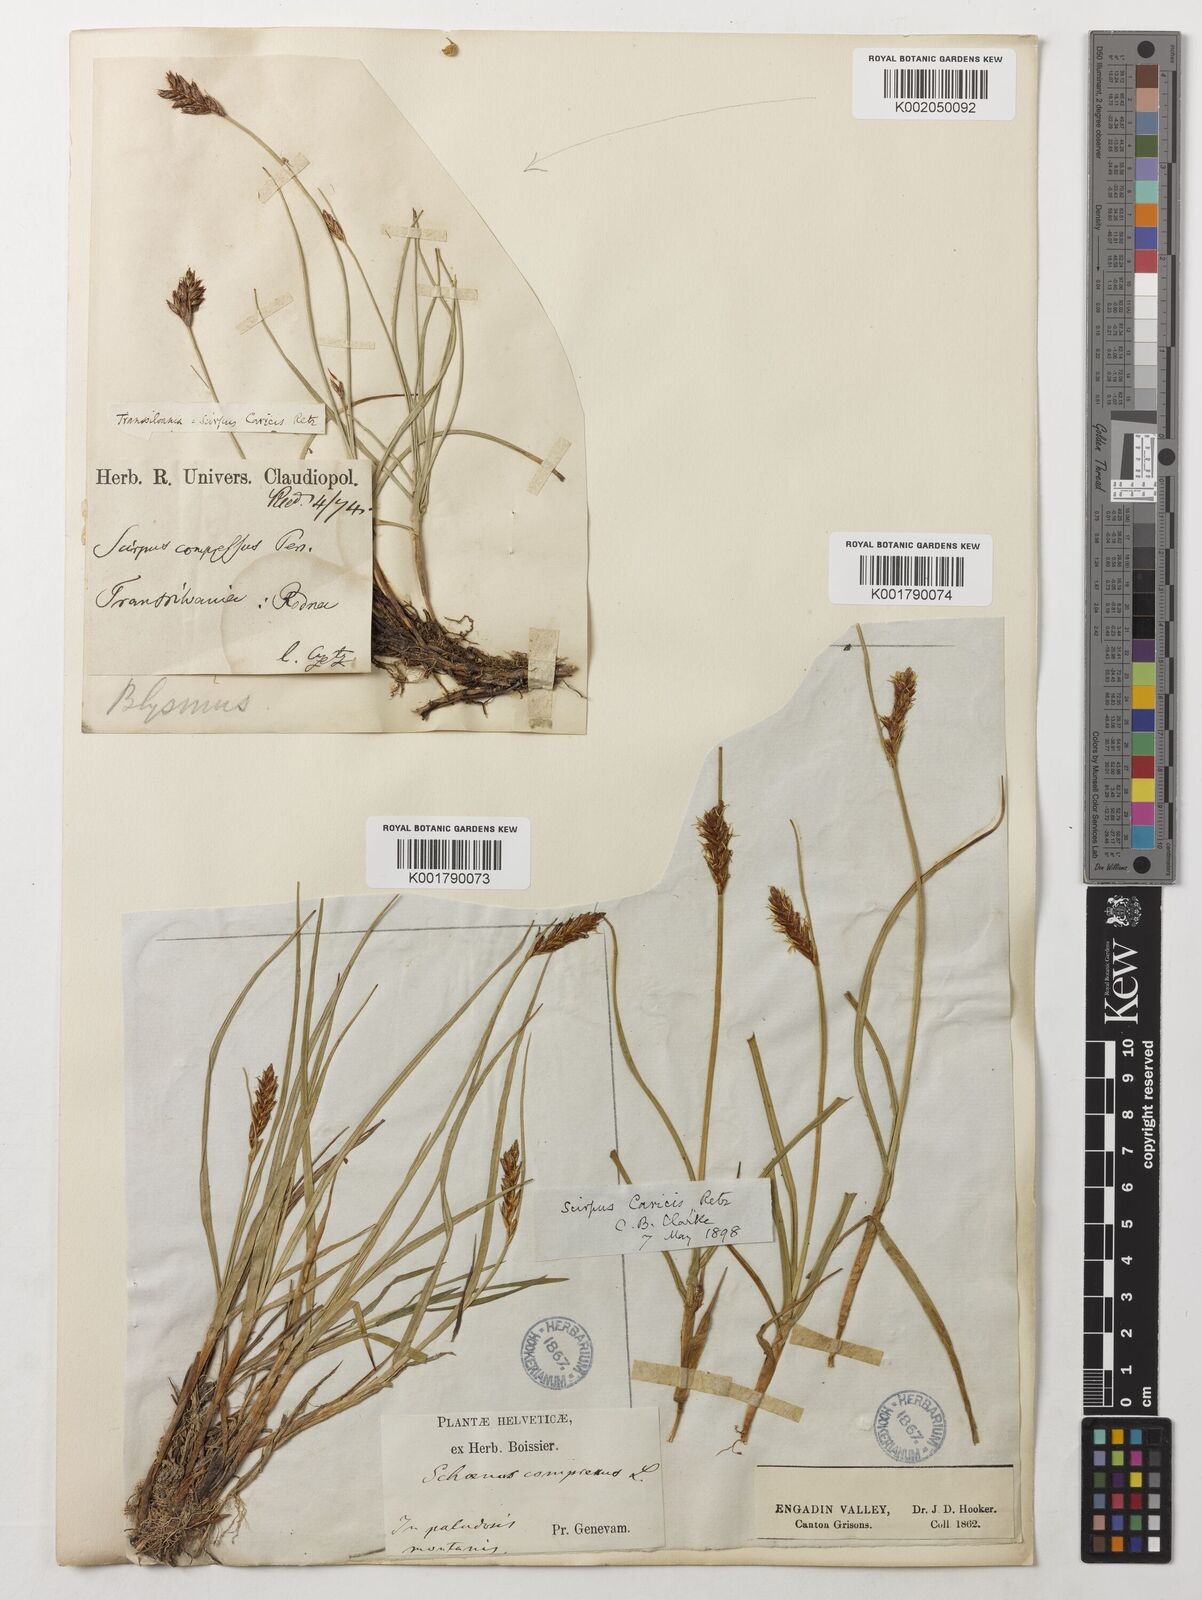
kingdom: Plantae
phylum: Tracheophyta
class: Liliopsida
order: Poales
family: Cyperaceae
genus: Blysmus
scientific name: Blysmus compressus
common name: Flat-sedge
